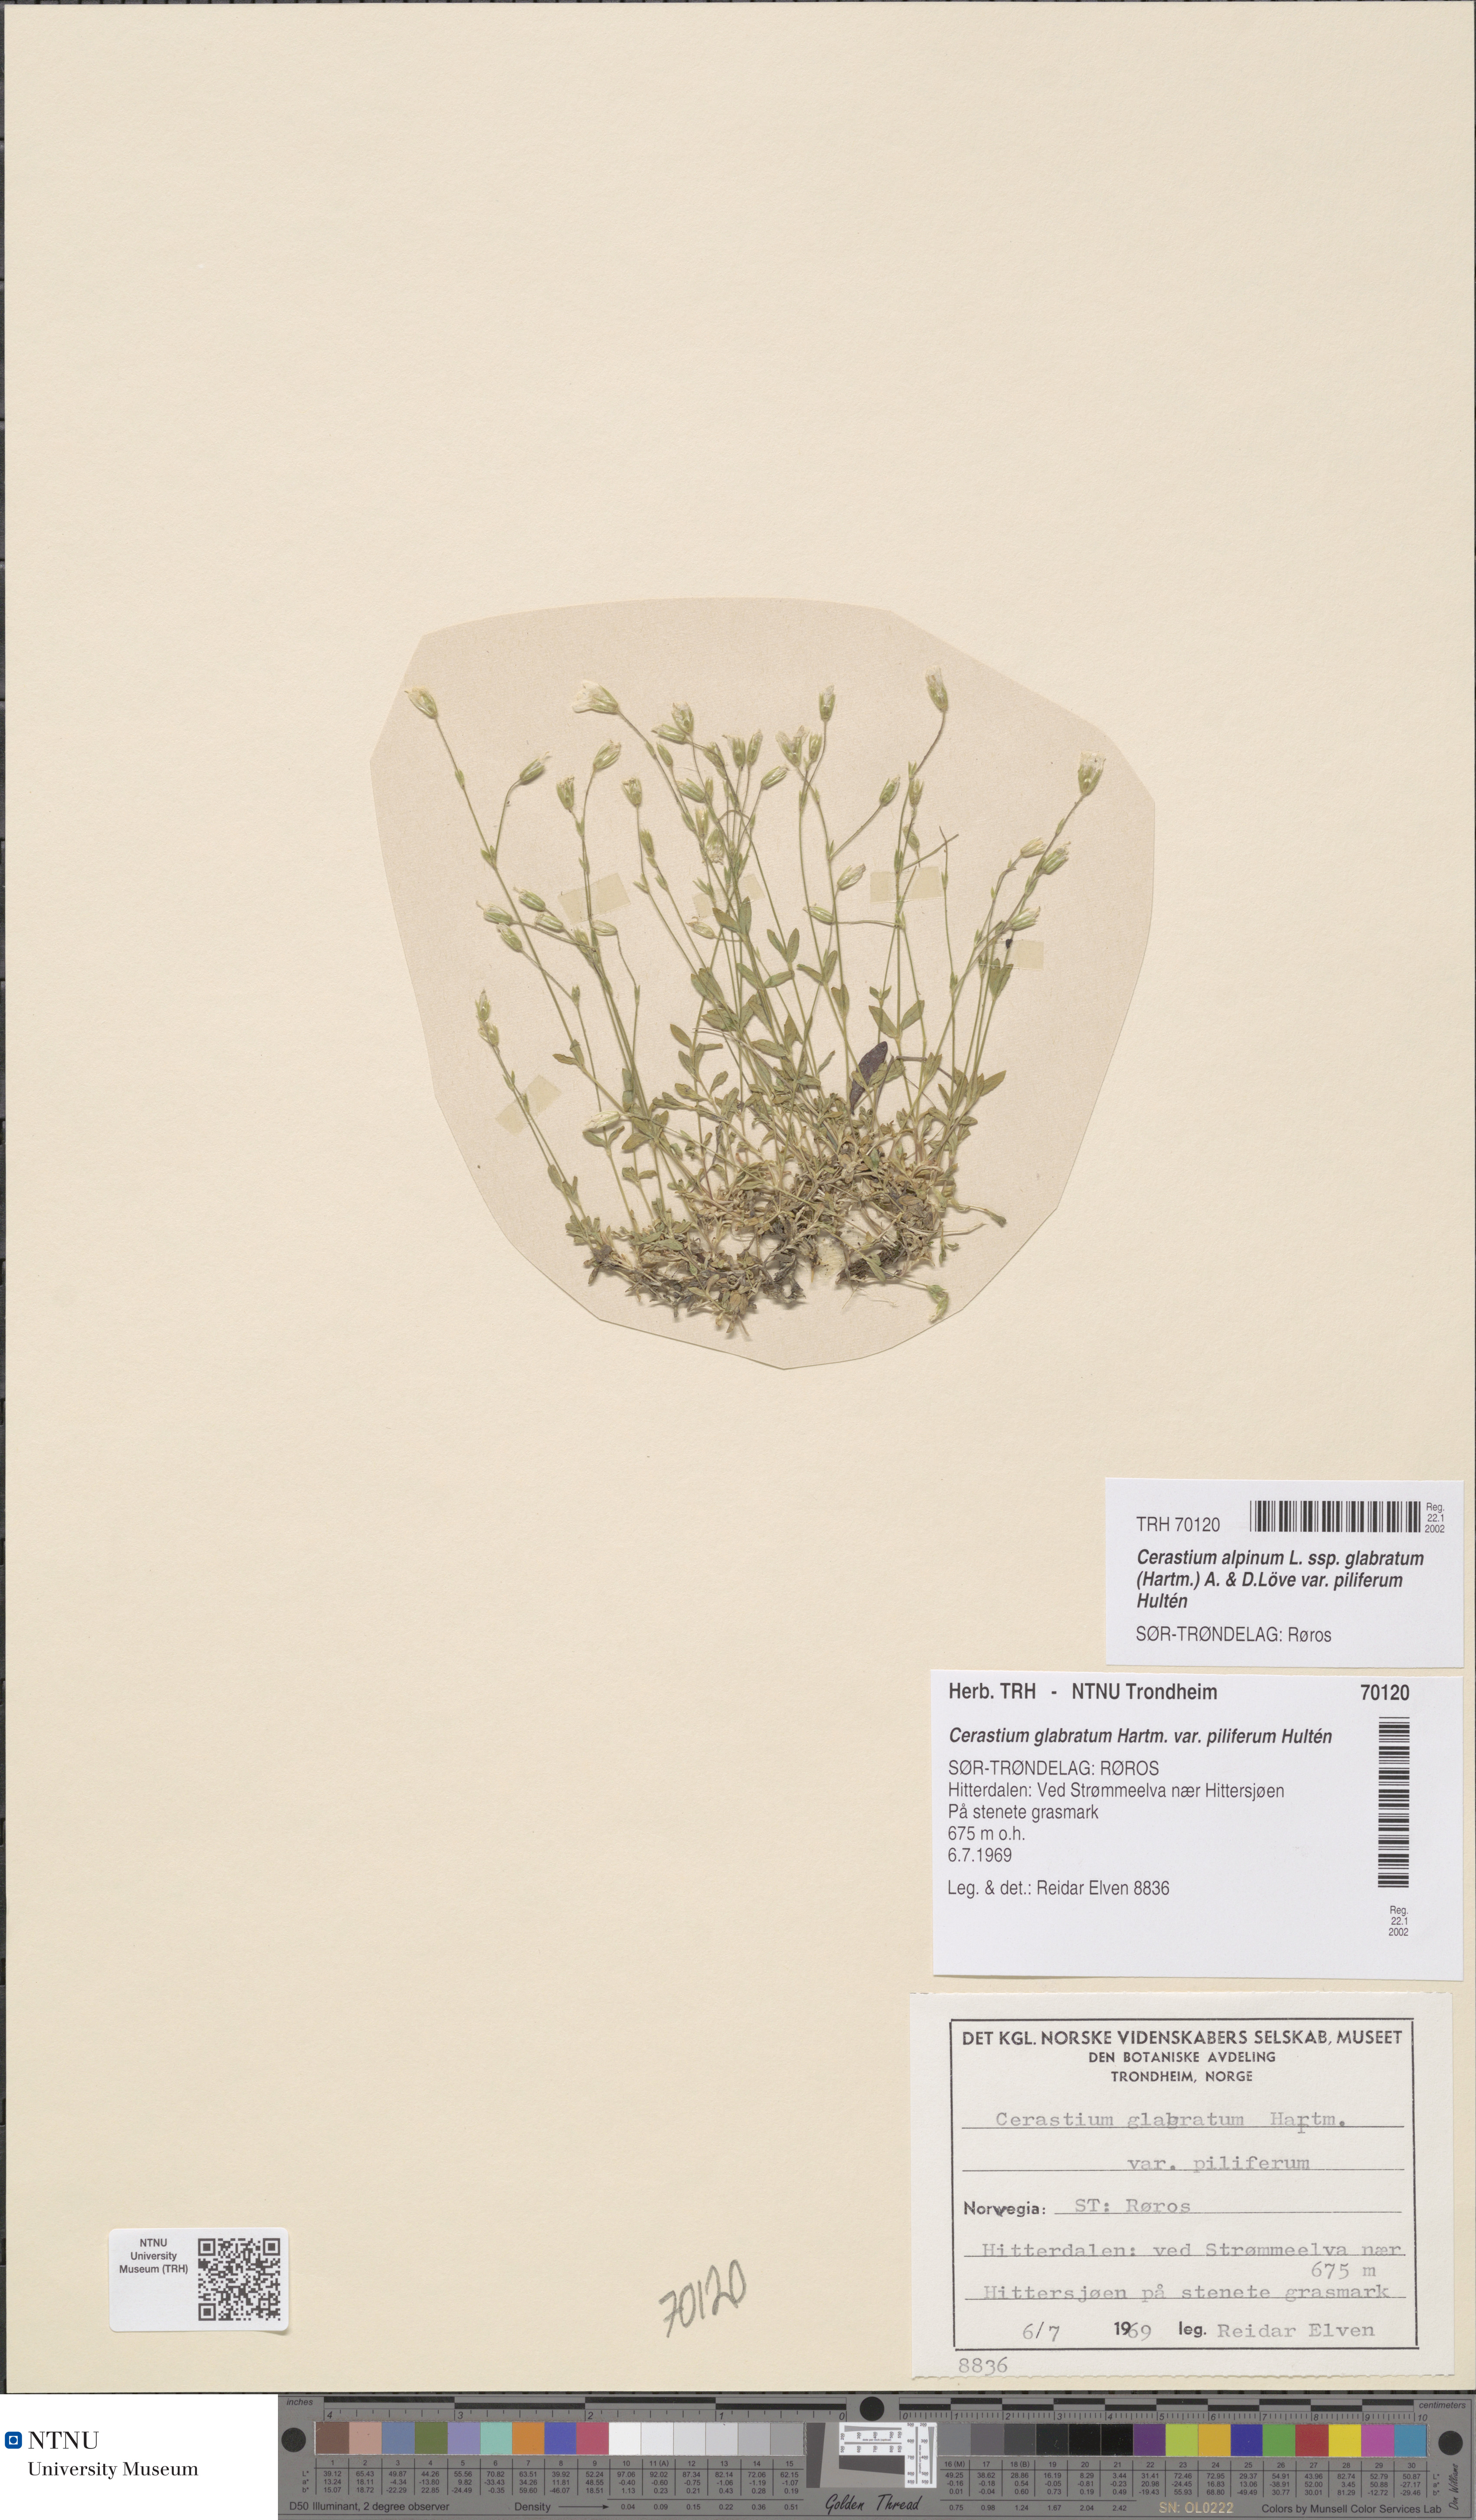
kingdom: Plantae
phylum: Tracheophyta
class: Magnoliopsida
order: Caryophyllales
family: Caryophyllaceae
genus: Cerastium
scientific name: Cerastium alpinum
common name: Alpine mouse-ear
